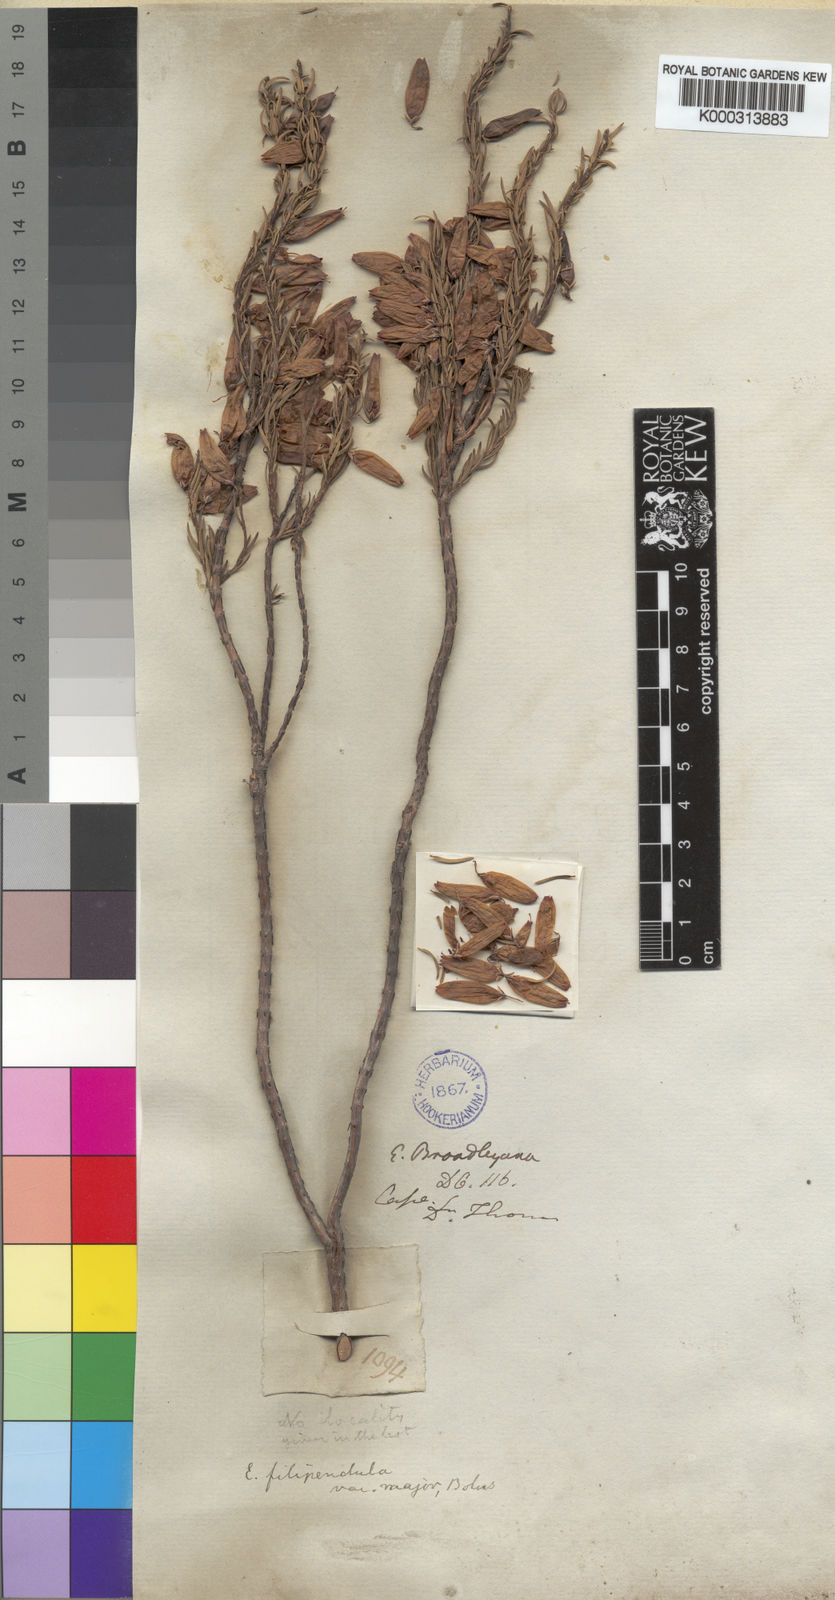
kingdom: Plantae
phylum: Tracheophyta
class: Magnoliopsida
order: Ericales
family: Ericaceae
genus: Erica
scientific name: Erica filipendula
